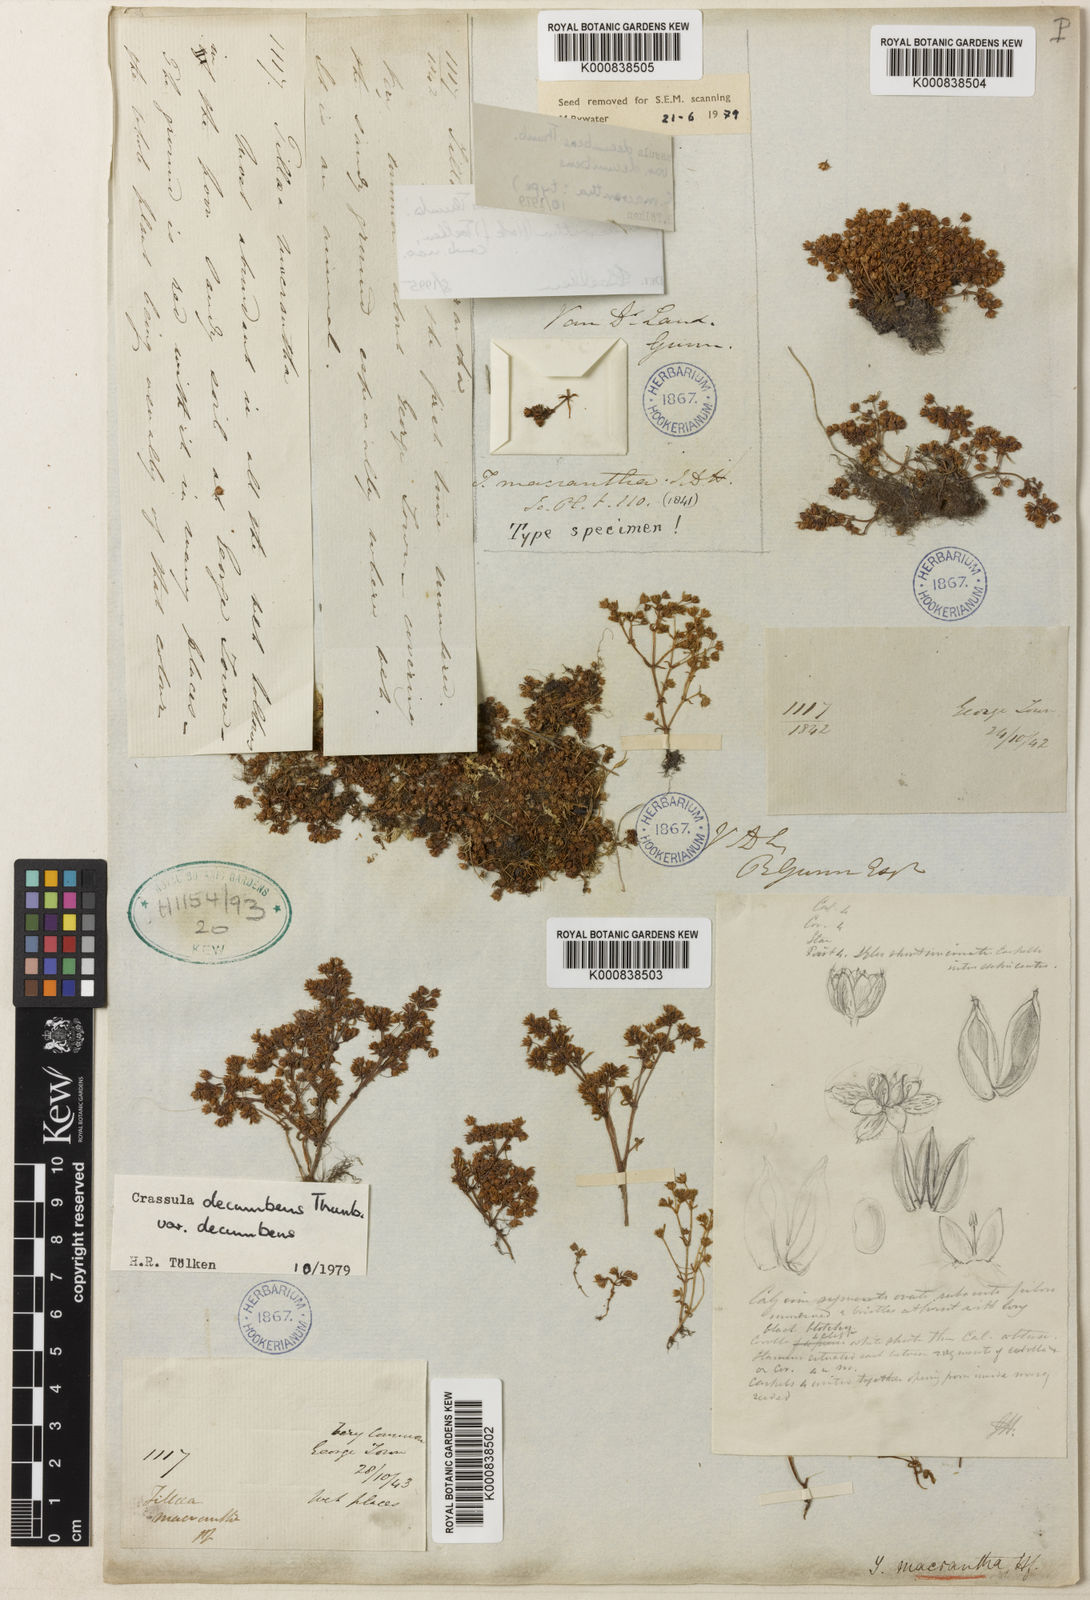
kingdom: Plantae
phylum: Tracheophyta
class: Magnoliopsida
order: Saxifragales
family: Crassulaceae
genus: Crassula
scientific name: Crassula decumbens
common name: Scilly pigmyweed
